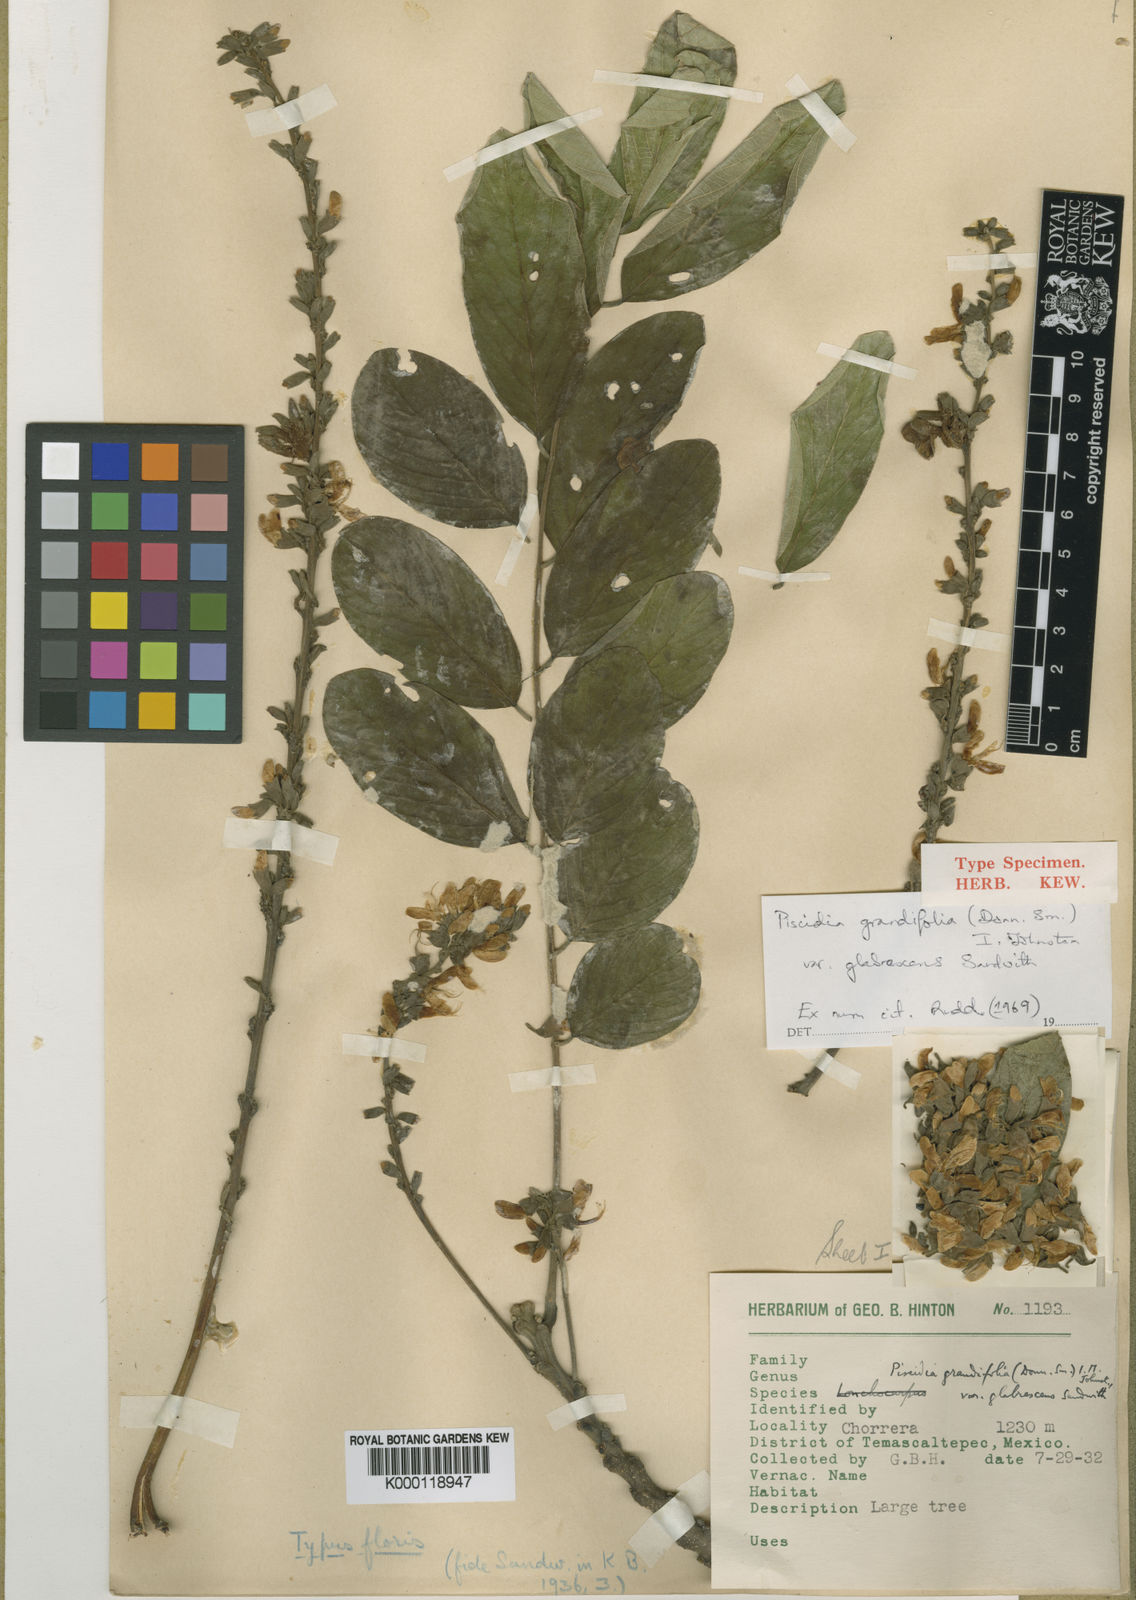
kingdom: Plantae
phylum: Tracheophyta
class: Magnoliopsida
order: Fabales
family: Fabaceae
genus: Piscidia
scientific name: Piscidia grandifolia
